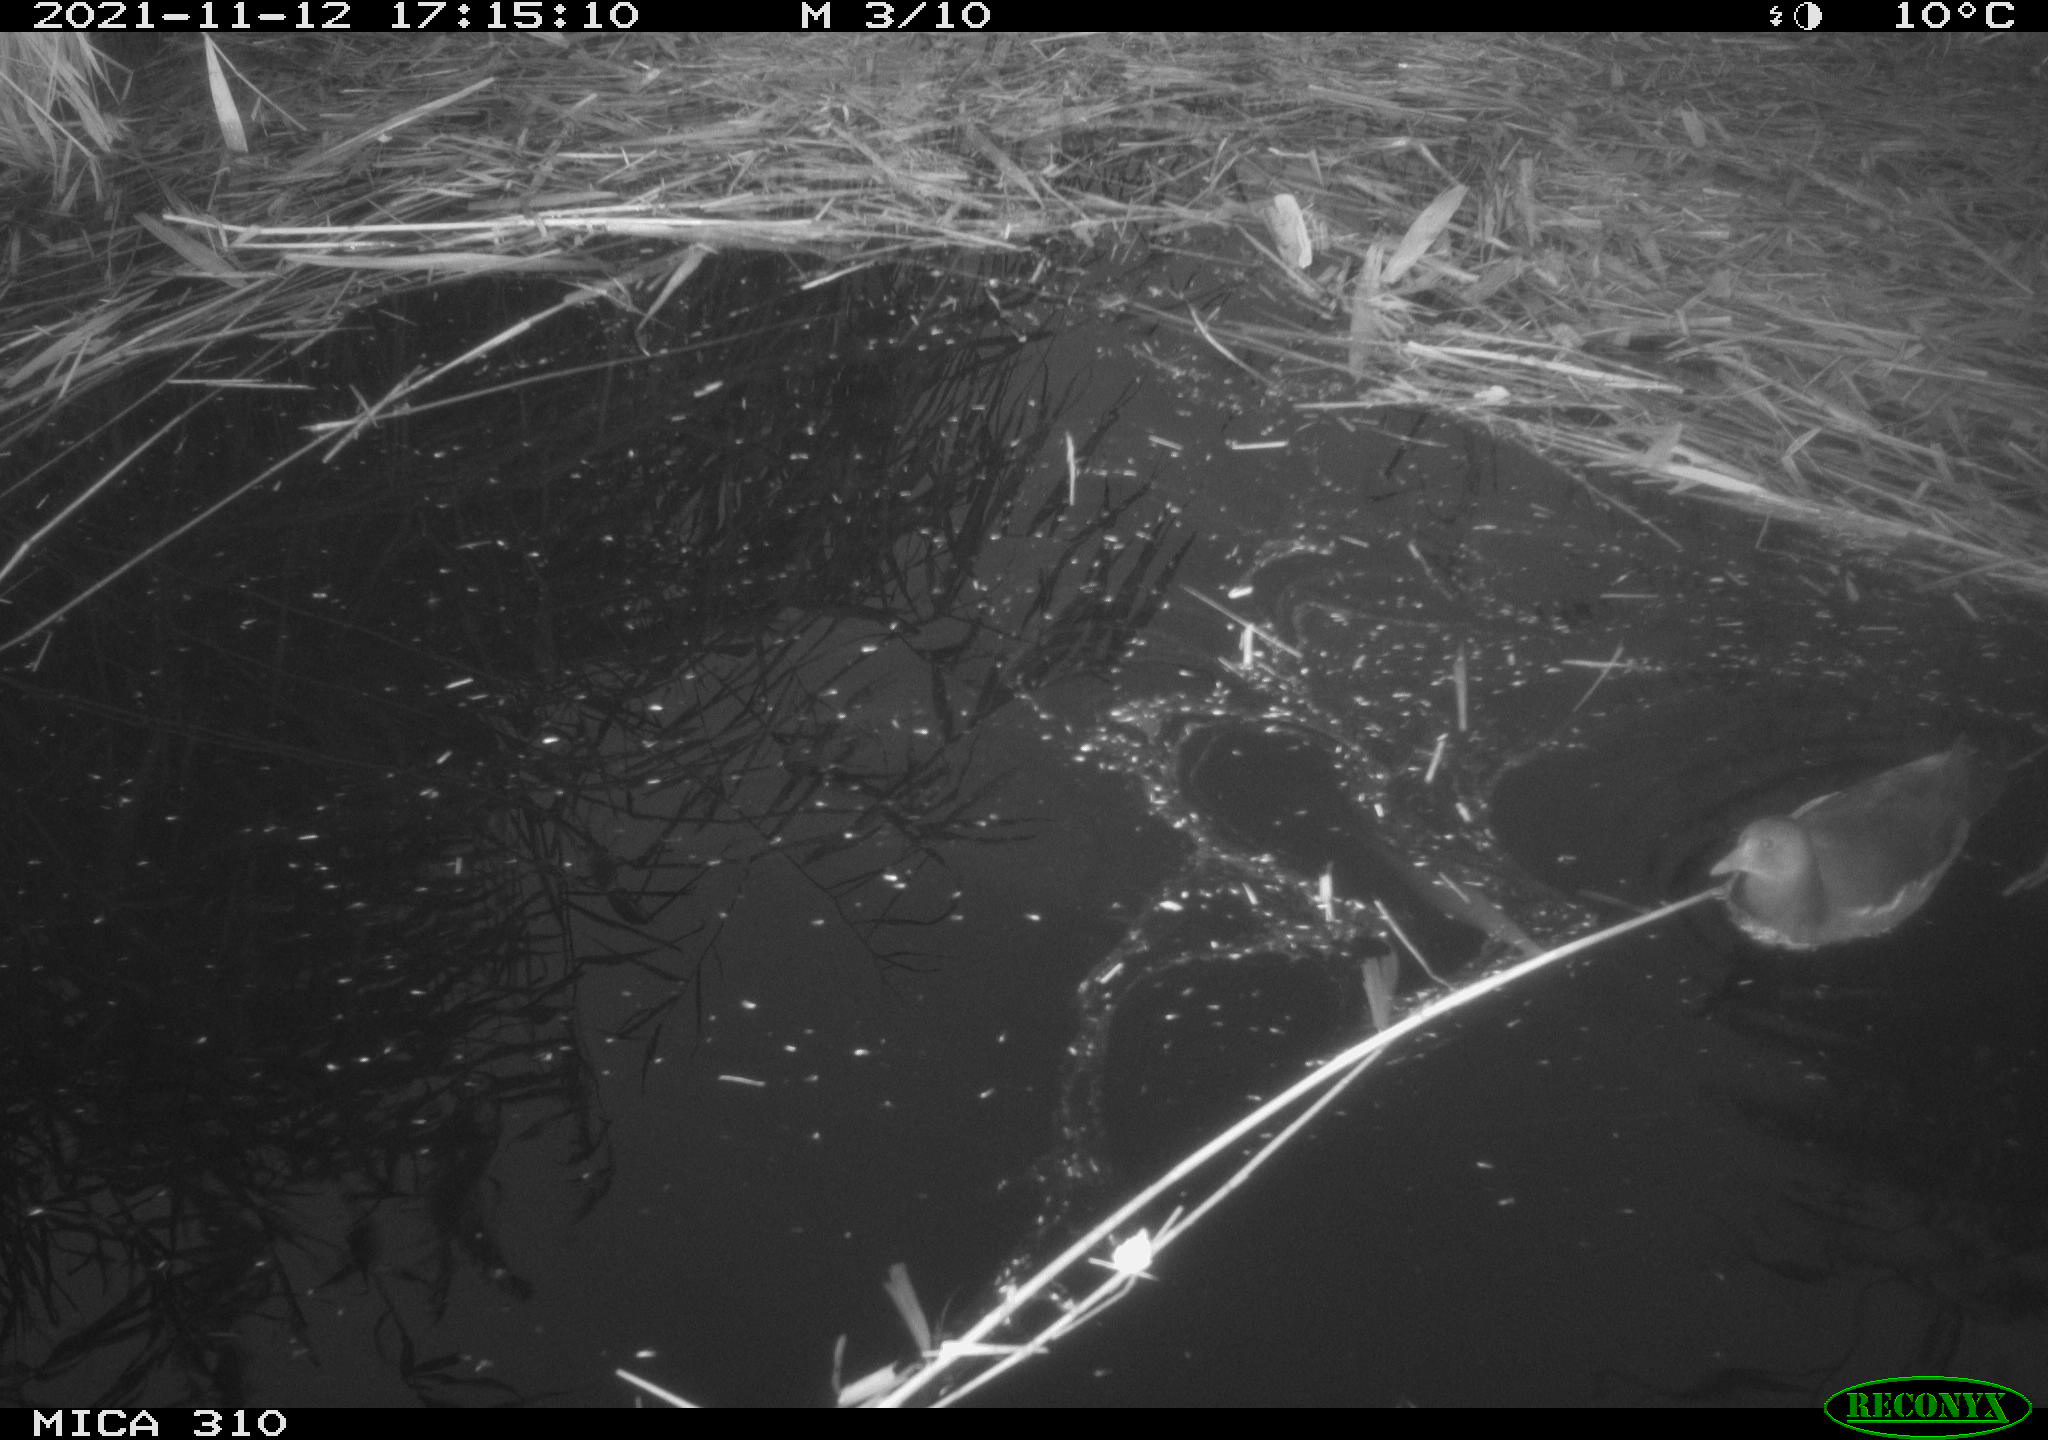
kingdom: Animalia
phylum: Chordata
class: Aves
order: Gruiformes
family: Rallidae
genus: Gallinula
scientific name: Gallinula chloropus
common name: Common moorhen
